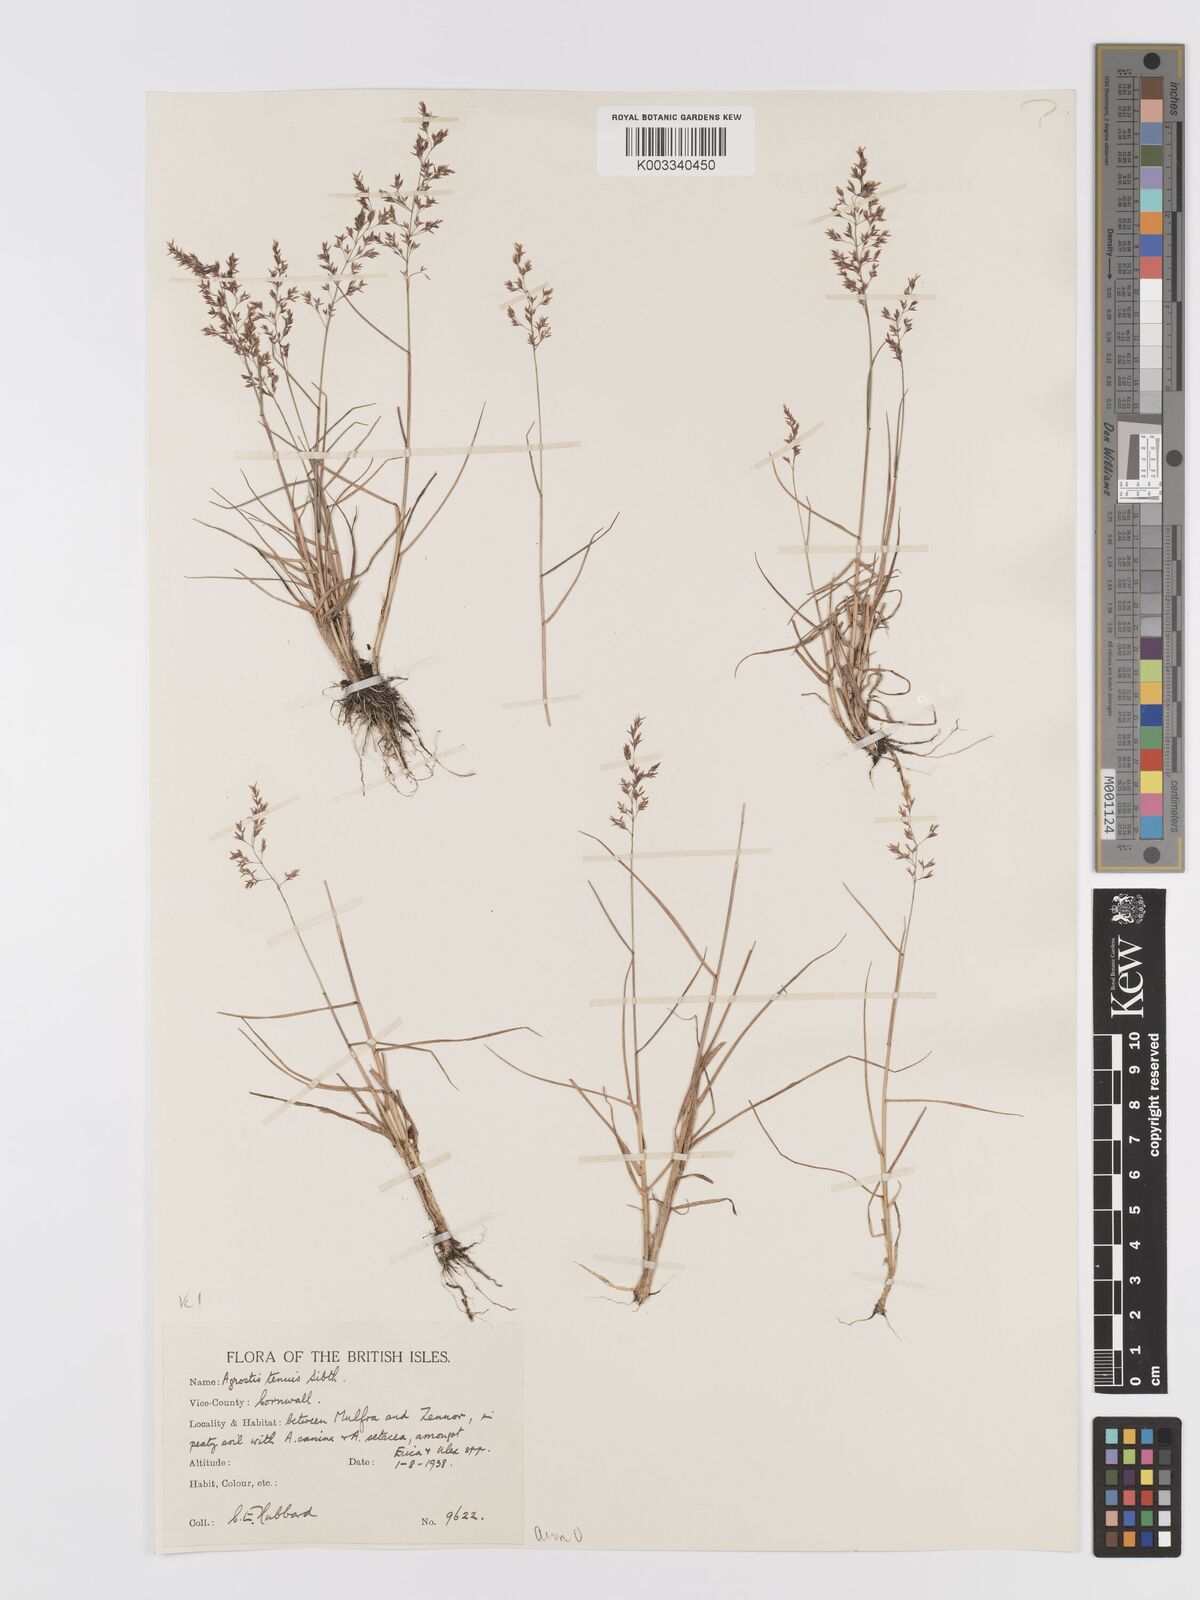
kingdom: Plantae
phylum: Tracheophyta
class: Liliopsida
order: Poales
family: Poaceae
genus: Agrostis
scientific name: Agrostis capillaris
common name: Colonial bentgrass
